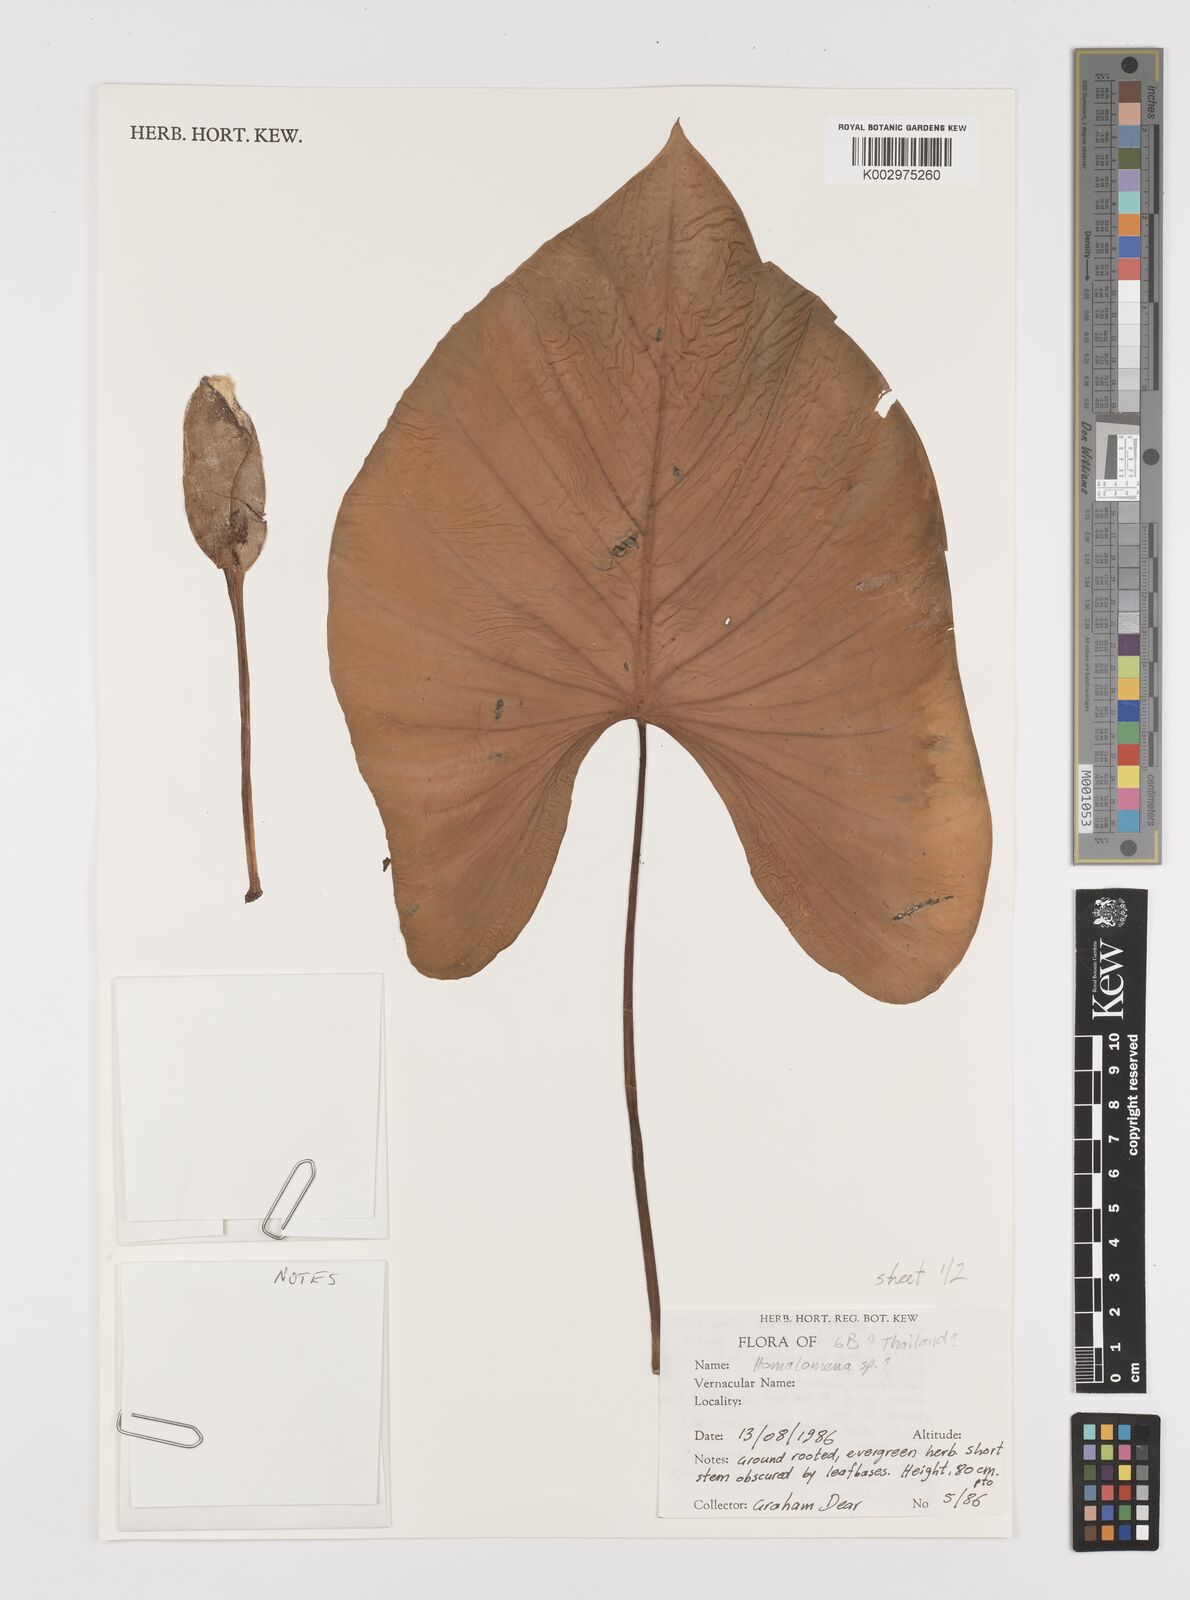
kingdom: Plantae
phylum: Tracheophyta
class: Liliopsida
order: Alismatales
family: Araceae
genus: Homalomena
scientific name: Homalomena
